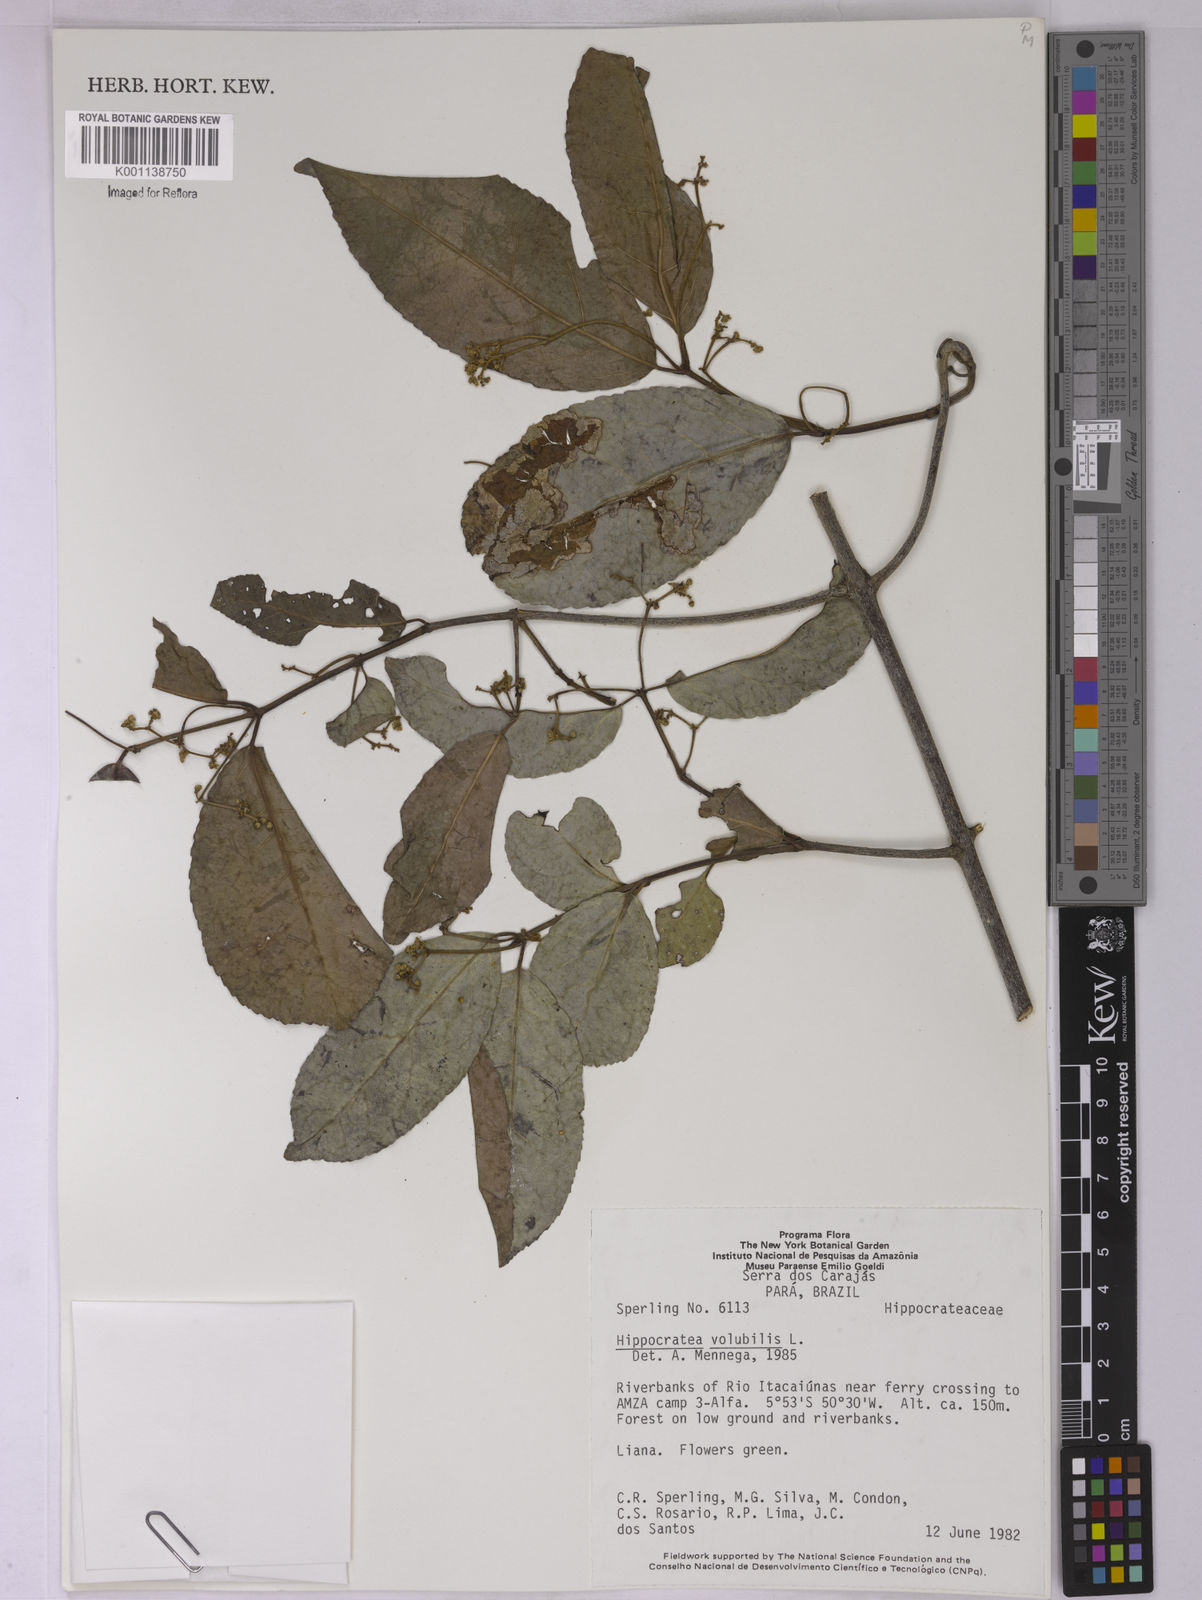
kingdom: Plantae
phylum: Tracheophyta
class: Magnoliopsida
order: Celastrales
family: Celastraceae
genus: Hippocratea
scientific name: Hippocratea volubilis
